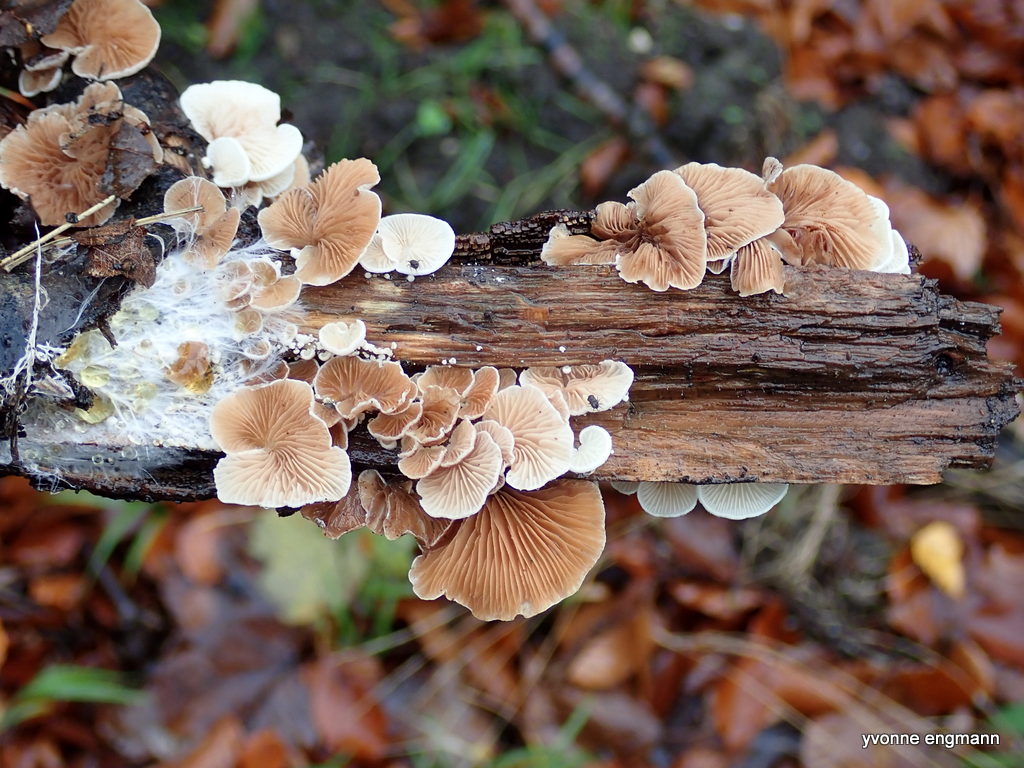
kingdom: Fungi
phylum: Basidiomycota
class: Agaricomycetes
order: Agaricales
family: Crepidotaceae
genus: Crepidotus
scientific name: Crepidotus
